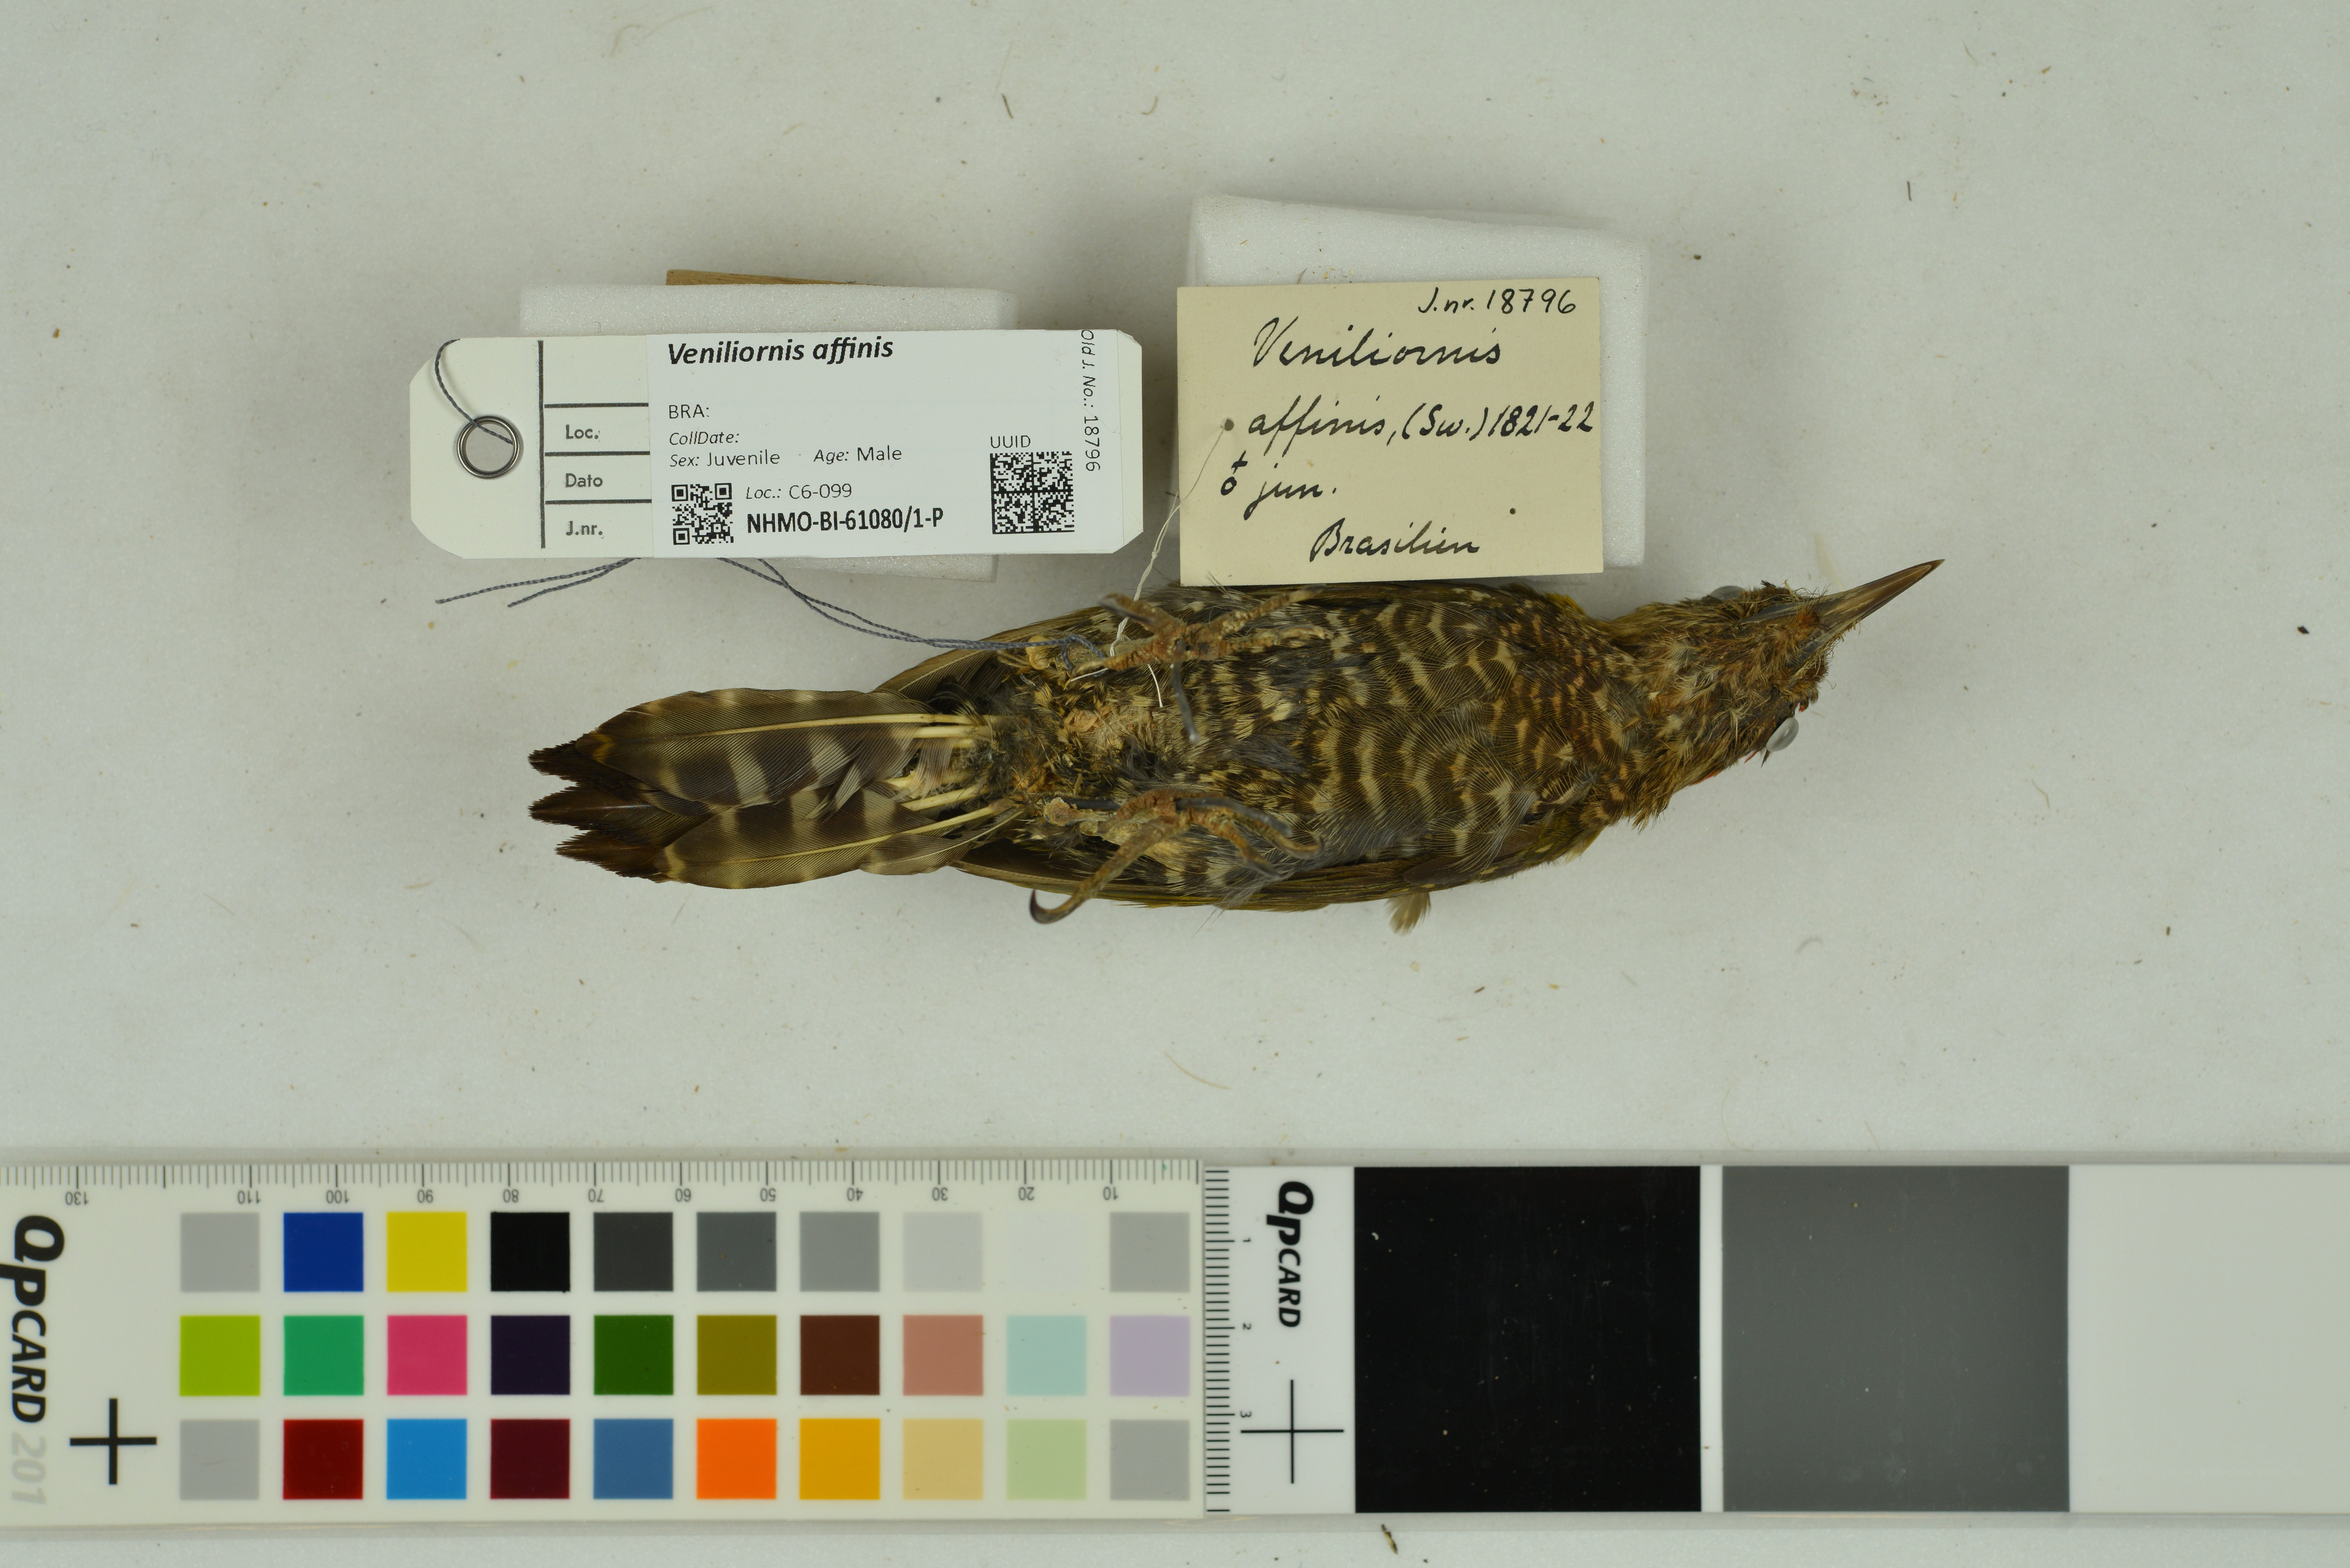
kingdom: Animalia
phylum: Chordata
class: Aves
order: Piciformes
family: Picidae
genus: Veniliornis
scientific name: Veniliornis affinis
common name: Red-stained woodpecker
